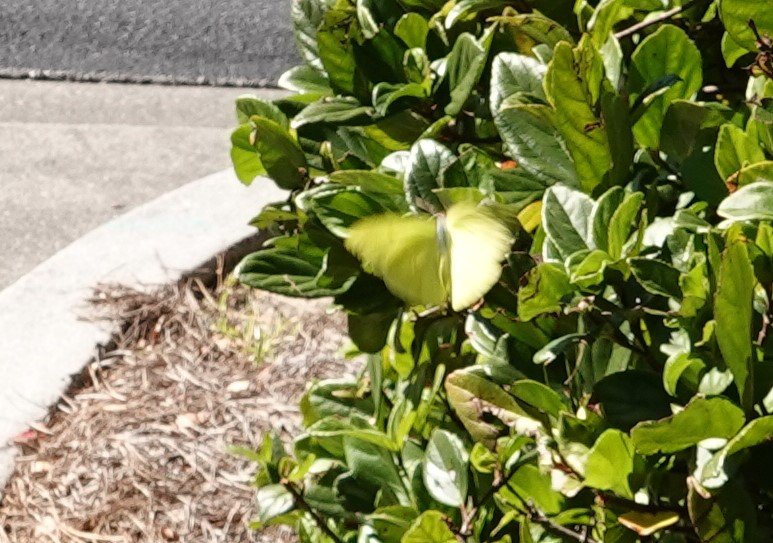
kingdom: Animalia
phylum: Arthropoda
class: Insecta
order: Lepidoptera
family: Pieridae
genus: Phoebis
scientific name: Phoebis sennae
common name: Cloudless Sulphur
